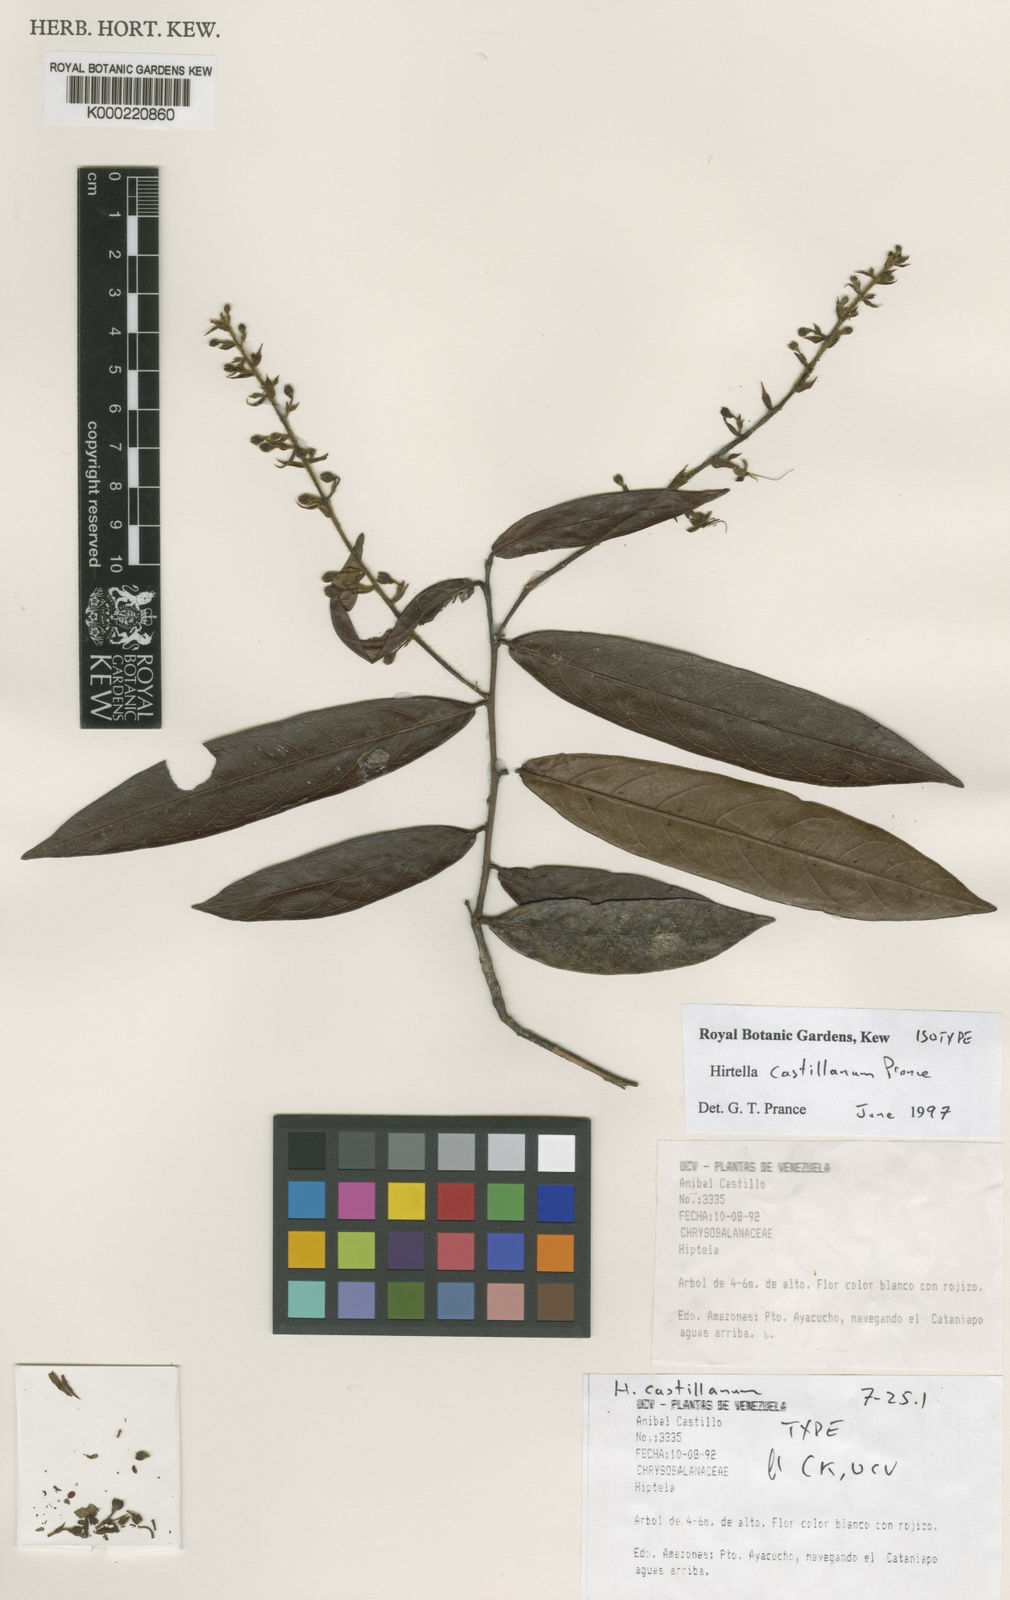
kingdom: Plantae
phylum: Tracheophyta
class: Magnoliopsida
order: Malpighiales
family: Chrysobalanaceae
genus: Hirtella
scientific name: Hirtella
